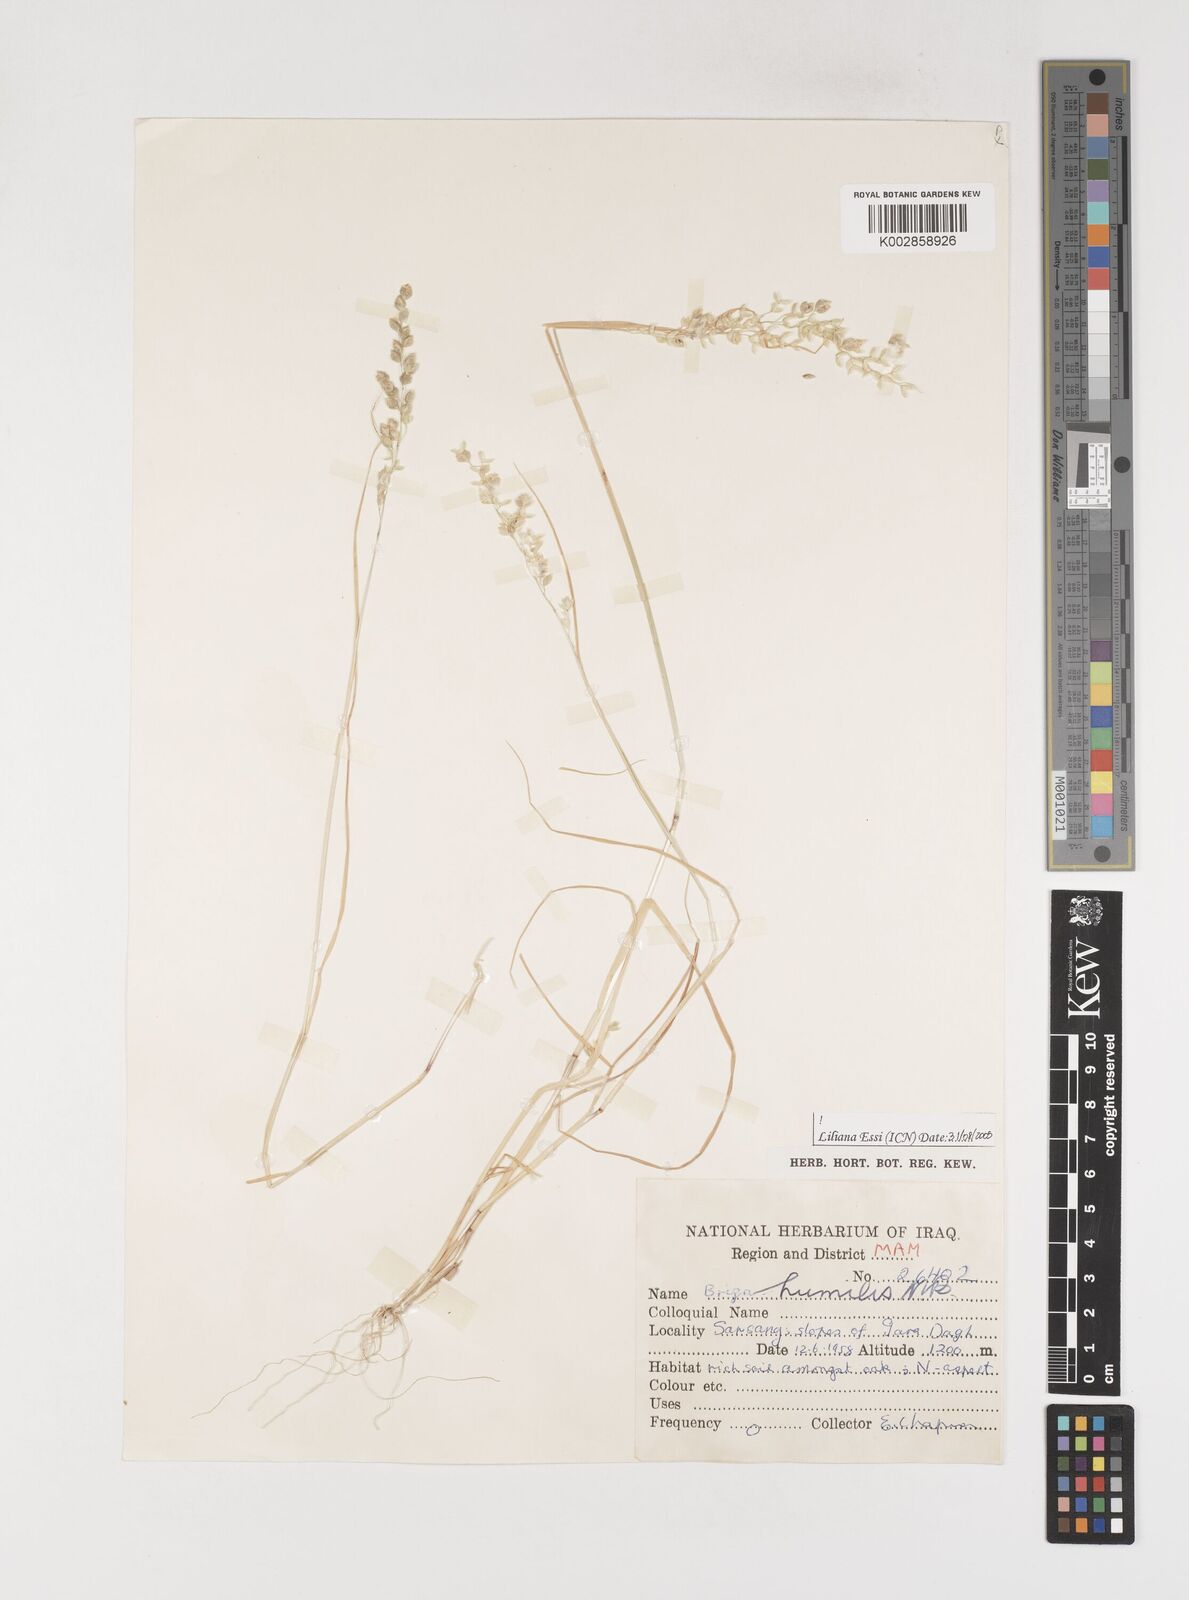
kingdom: Plantae
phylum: Tracheophyta
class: Liliopsida
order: Poales
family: Poaceae
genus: Briza
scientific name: Briza humilis
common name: Spiked quaking grass
